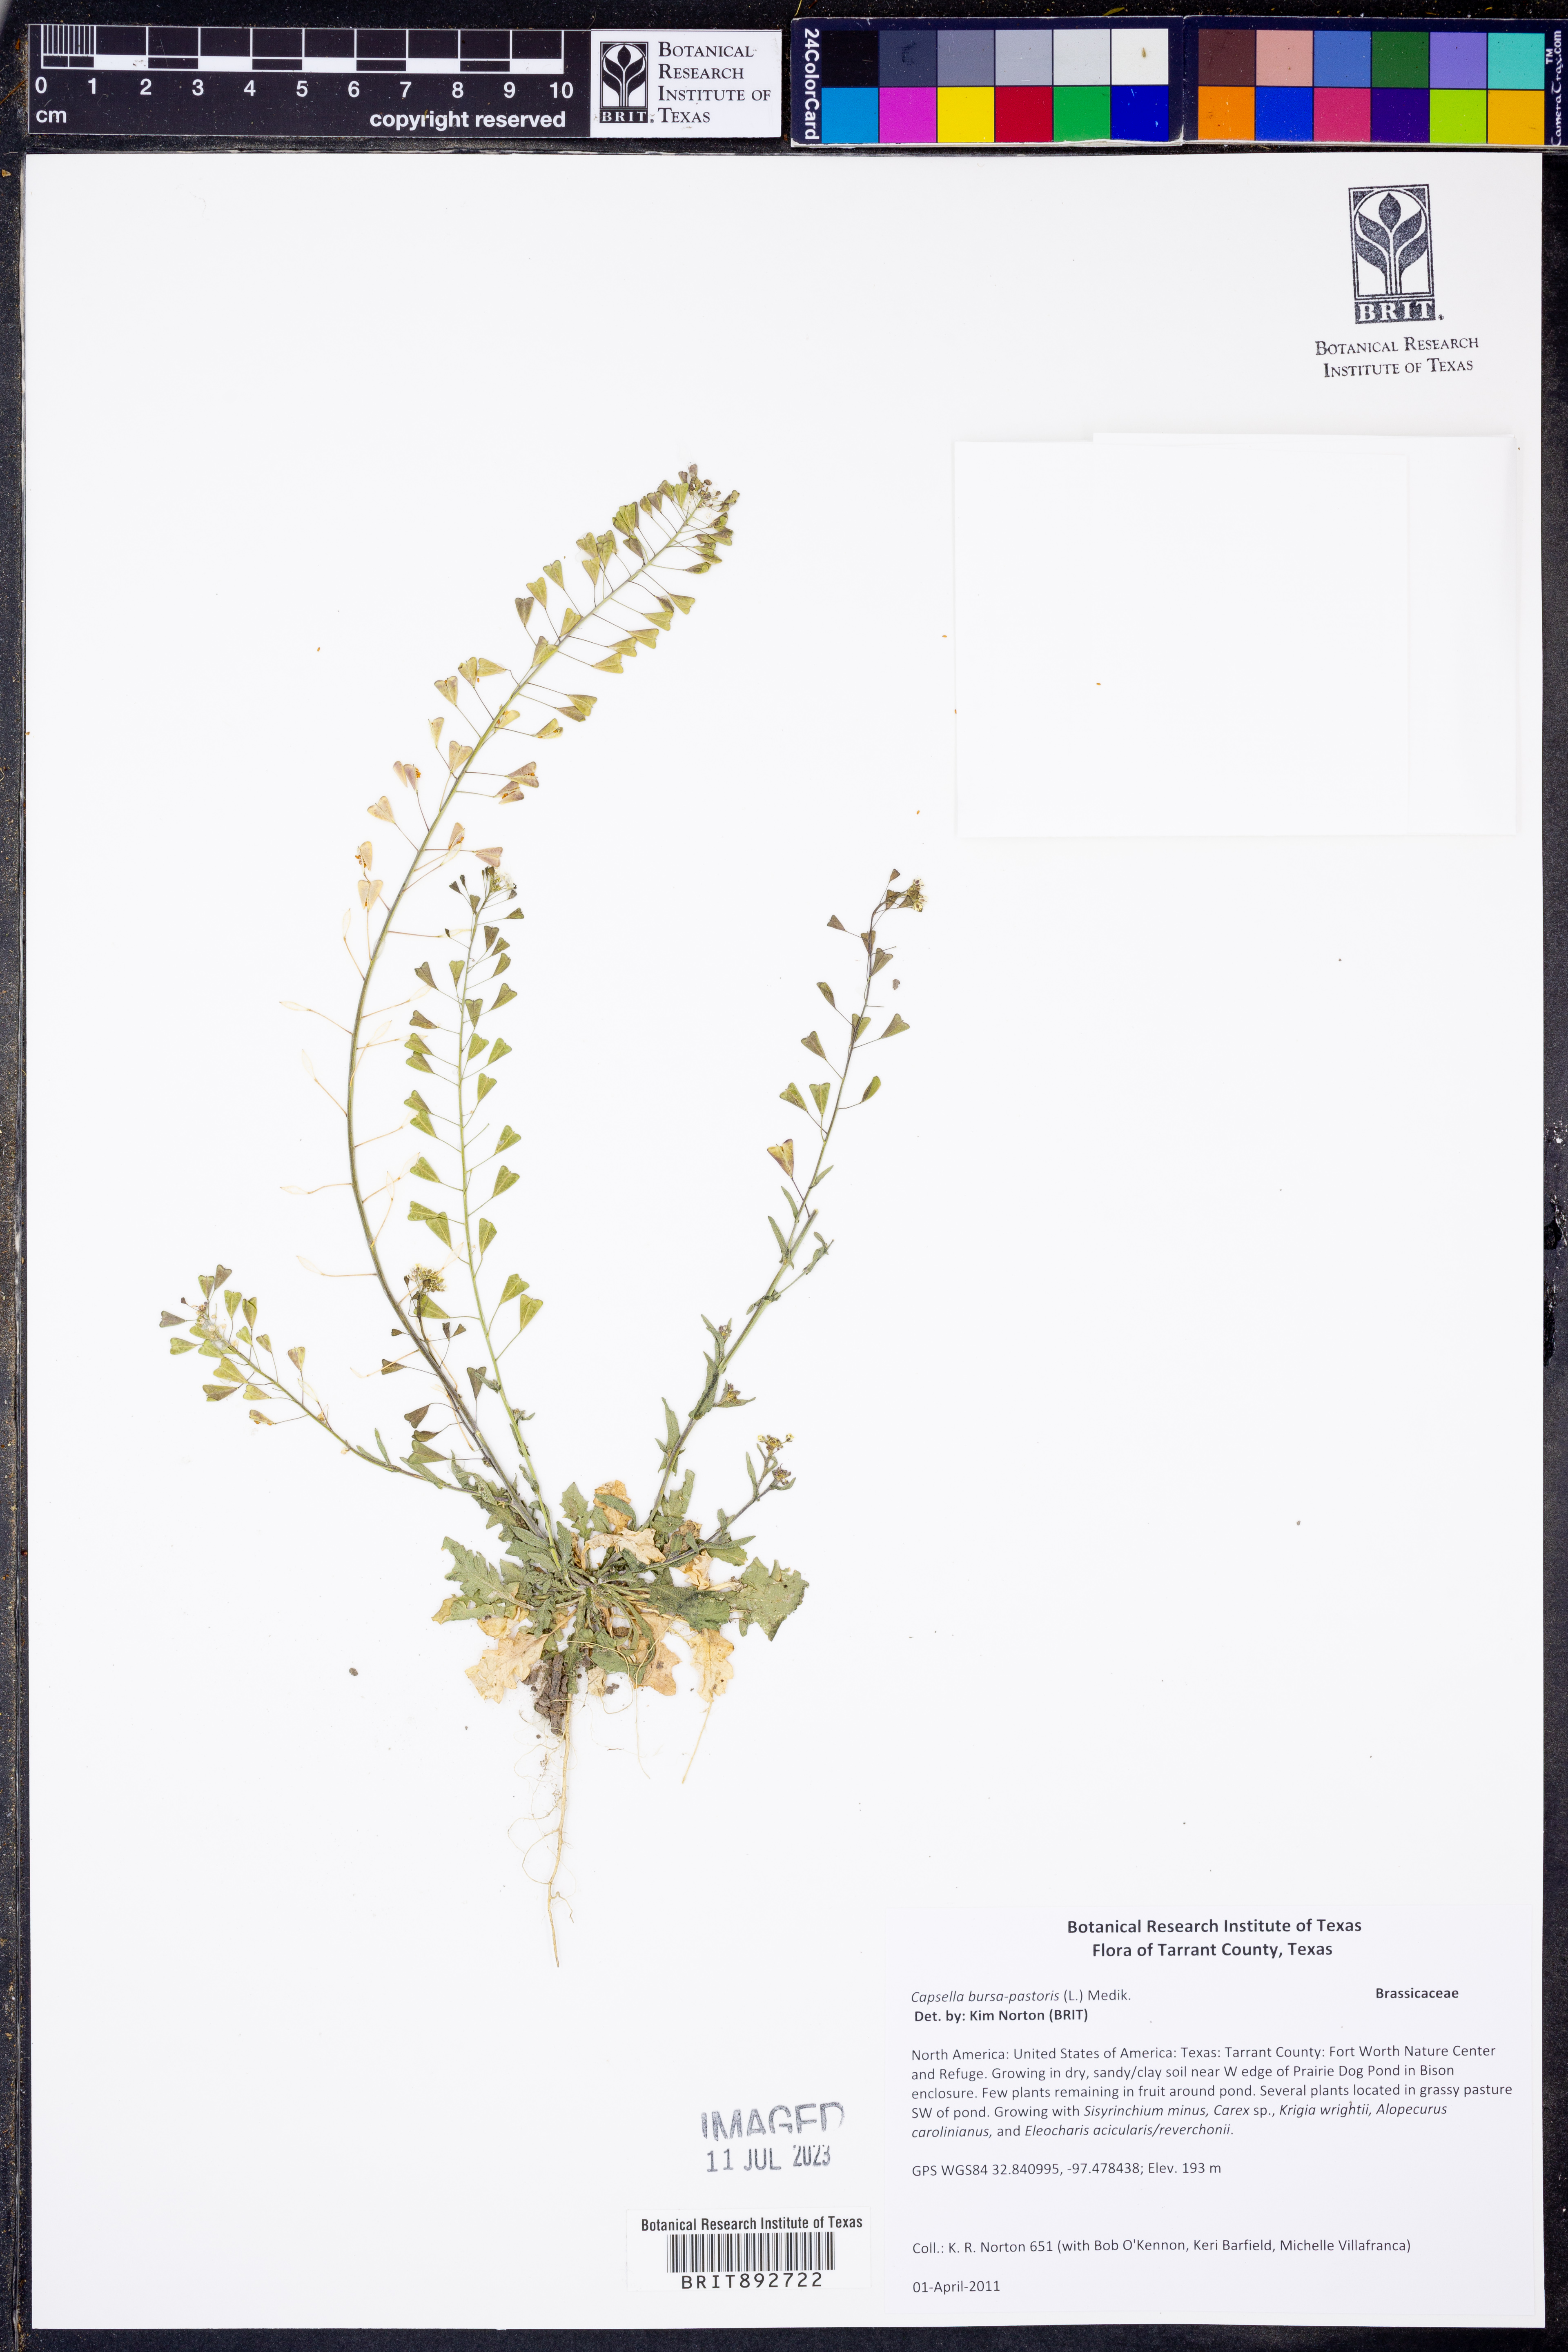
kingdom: Plantae
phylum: Tracheophyta
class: Magnoliopsida
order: Brassicales
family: Brassicaceae
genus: Capsella
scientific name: Capsella bursa-pastoris
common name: Shepherd's purse
